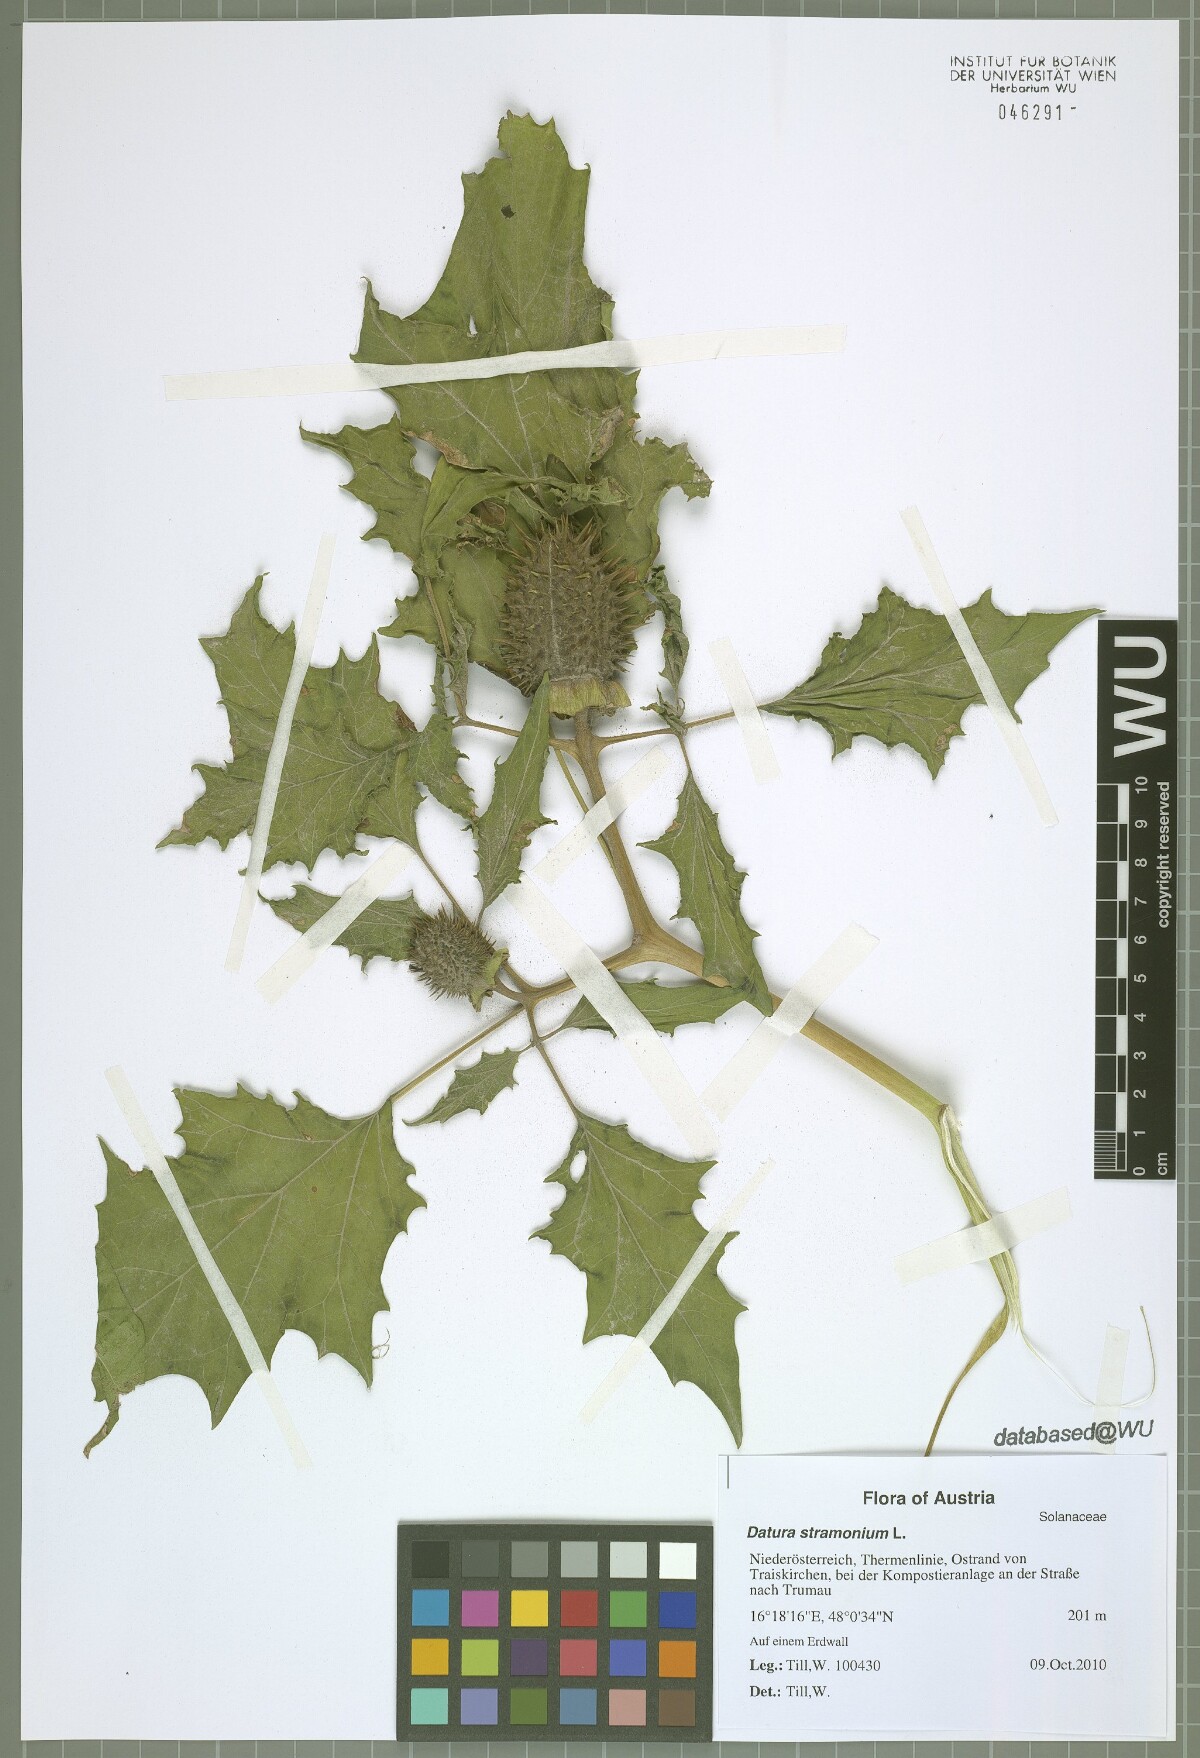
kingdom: Plantae
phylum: Tracheophyta
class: Magnoliopsida
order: Solanales
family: Solanaceae
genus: Datura
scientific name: Datura stramonium
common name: Thorn-apple
